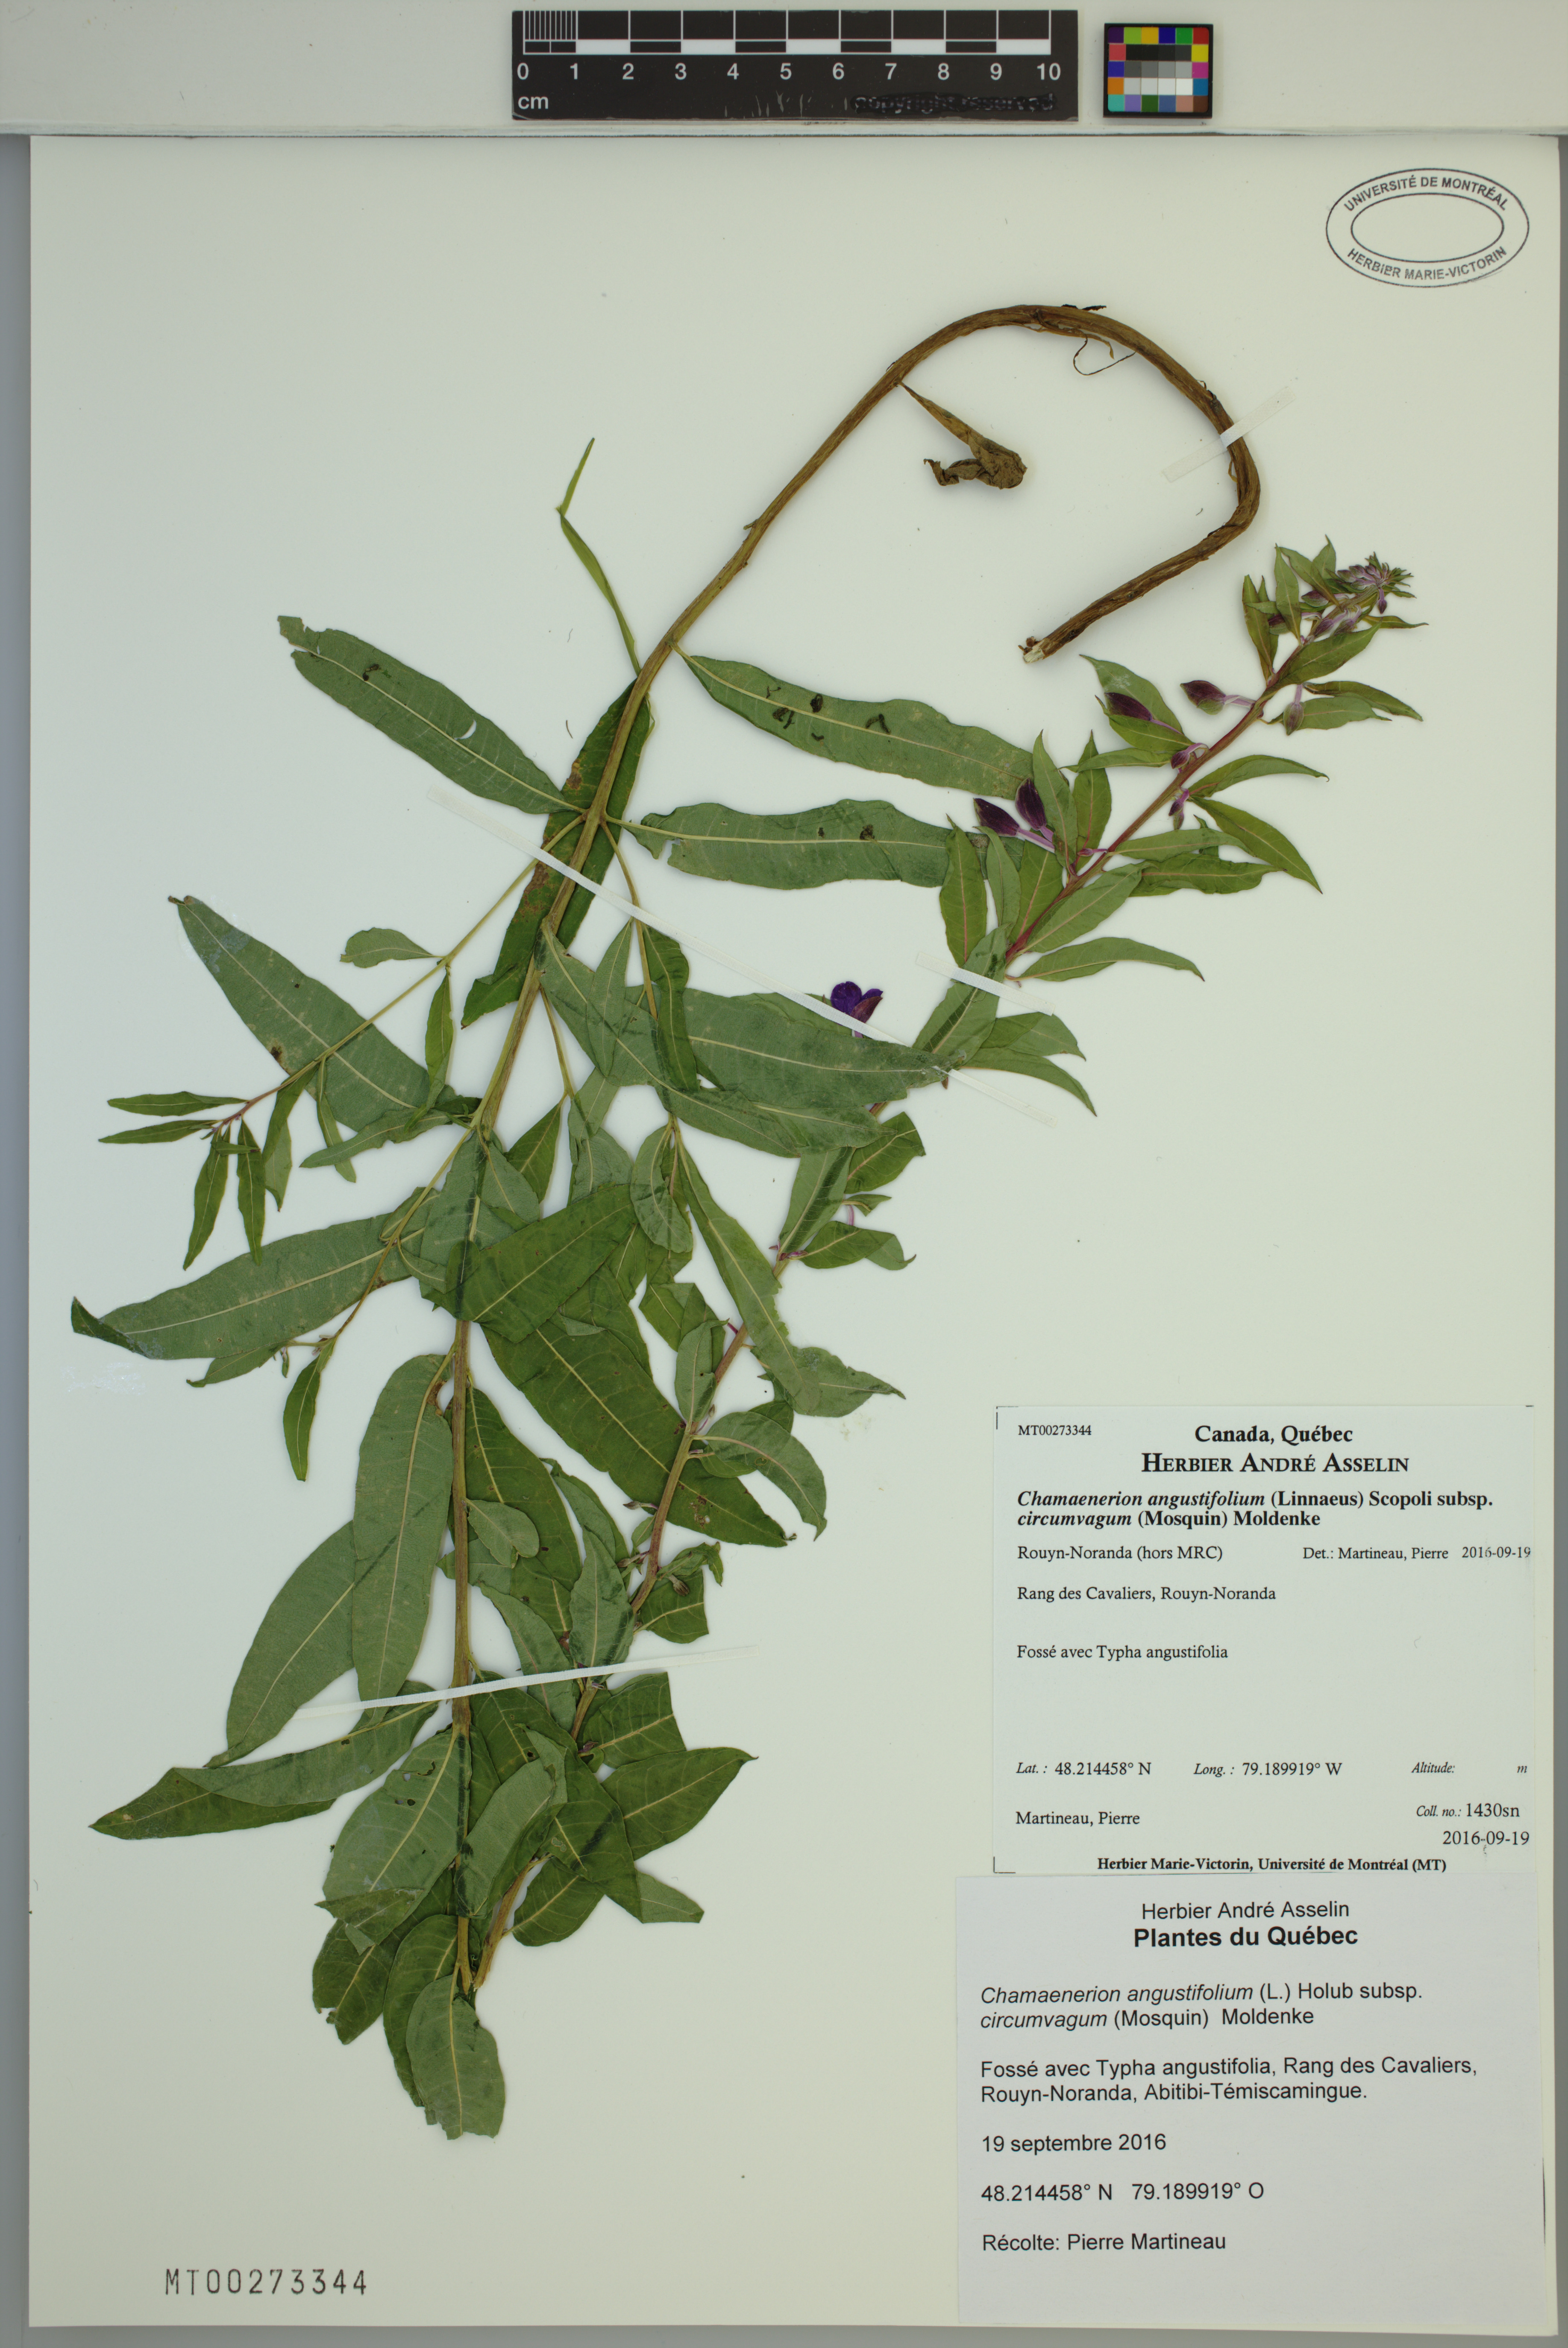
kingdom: Plantae
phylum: Tracheophyta
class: Magnoliopsida
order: Myrtales
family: Onagraceae
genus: Chamaenerion
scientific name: Chamaenerion angustifolium
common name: Fireweed
